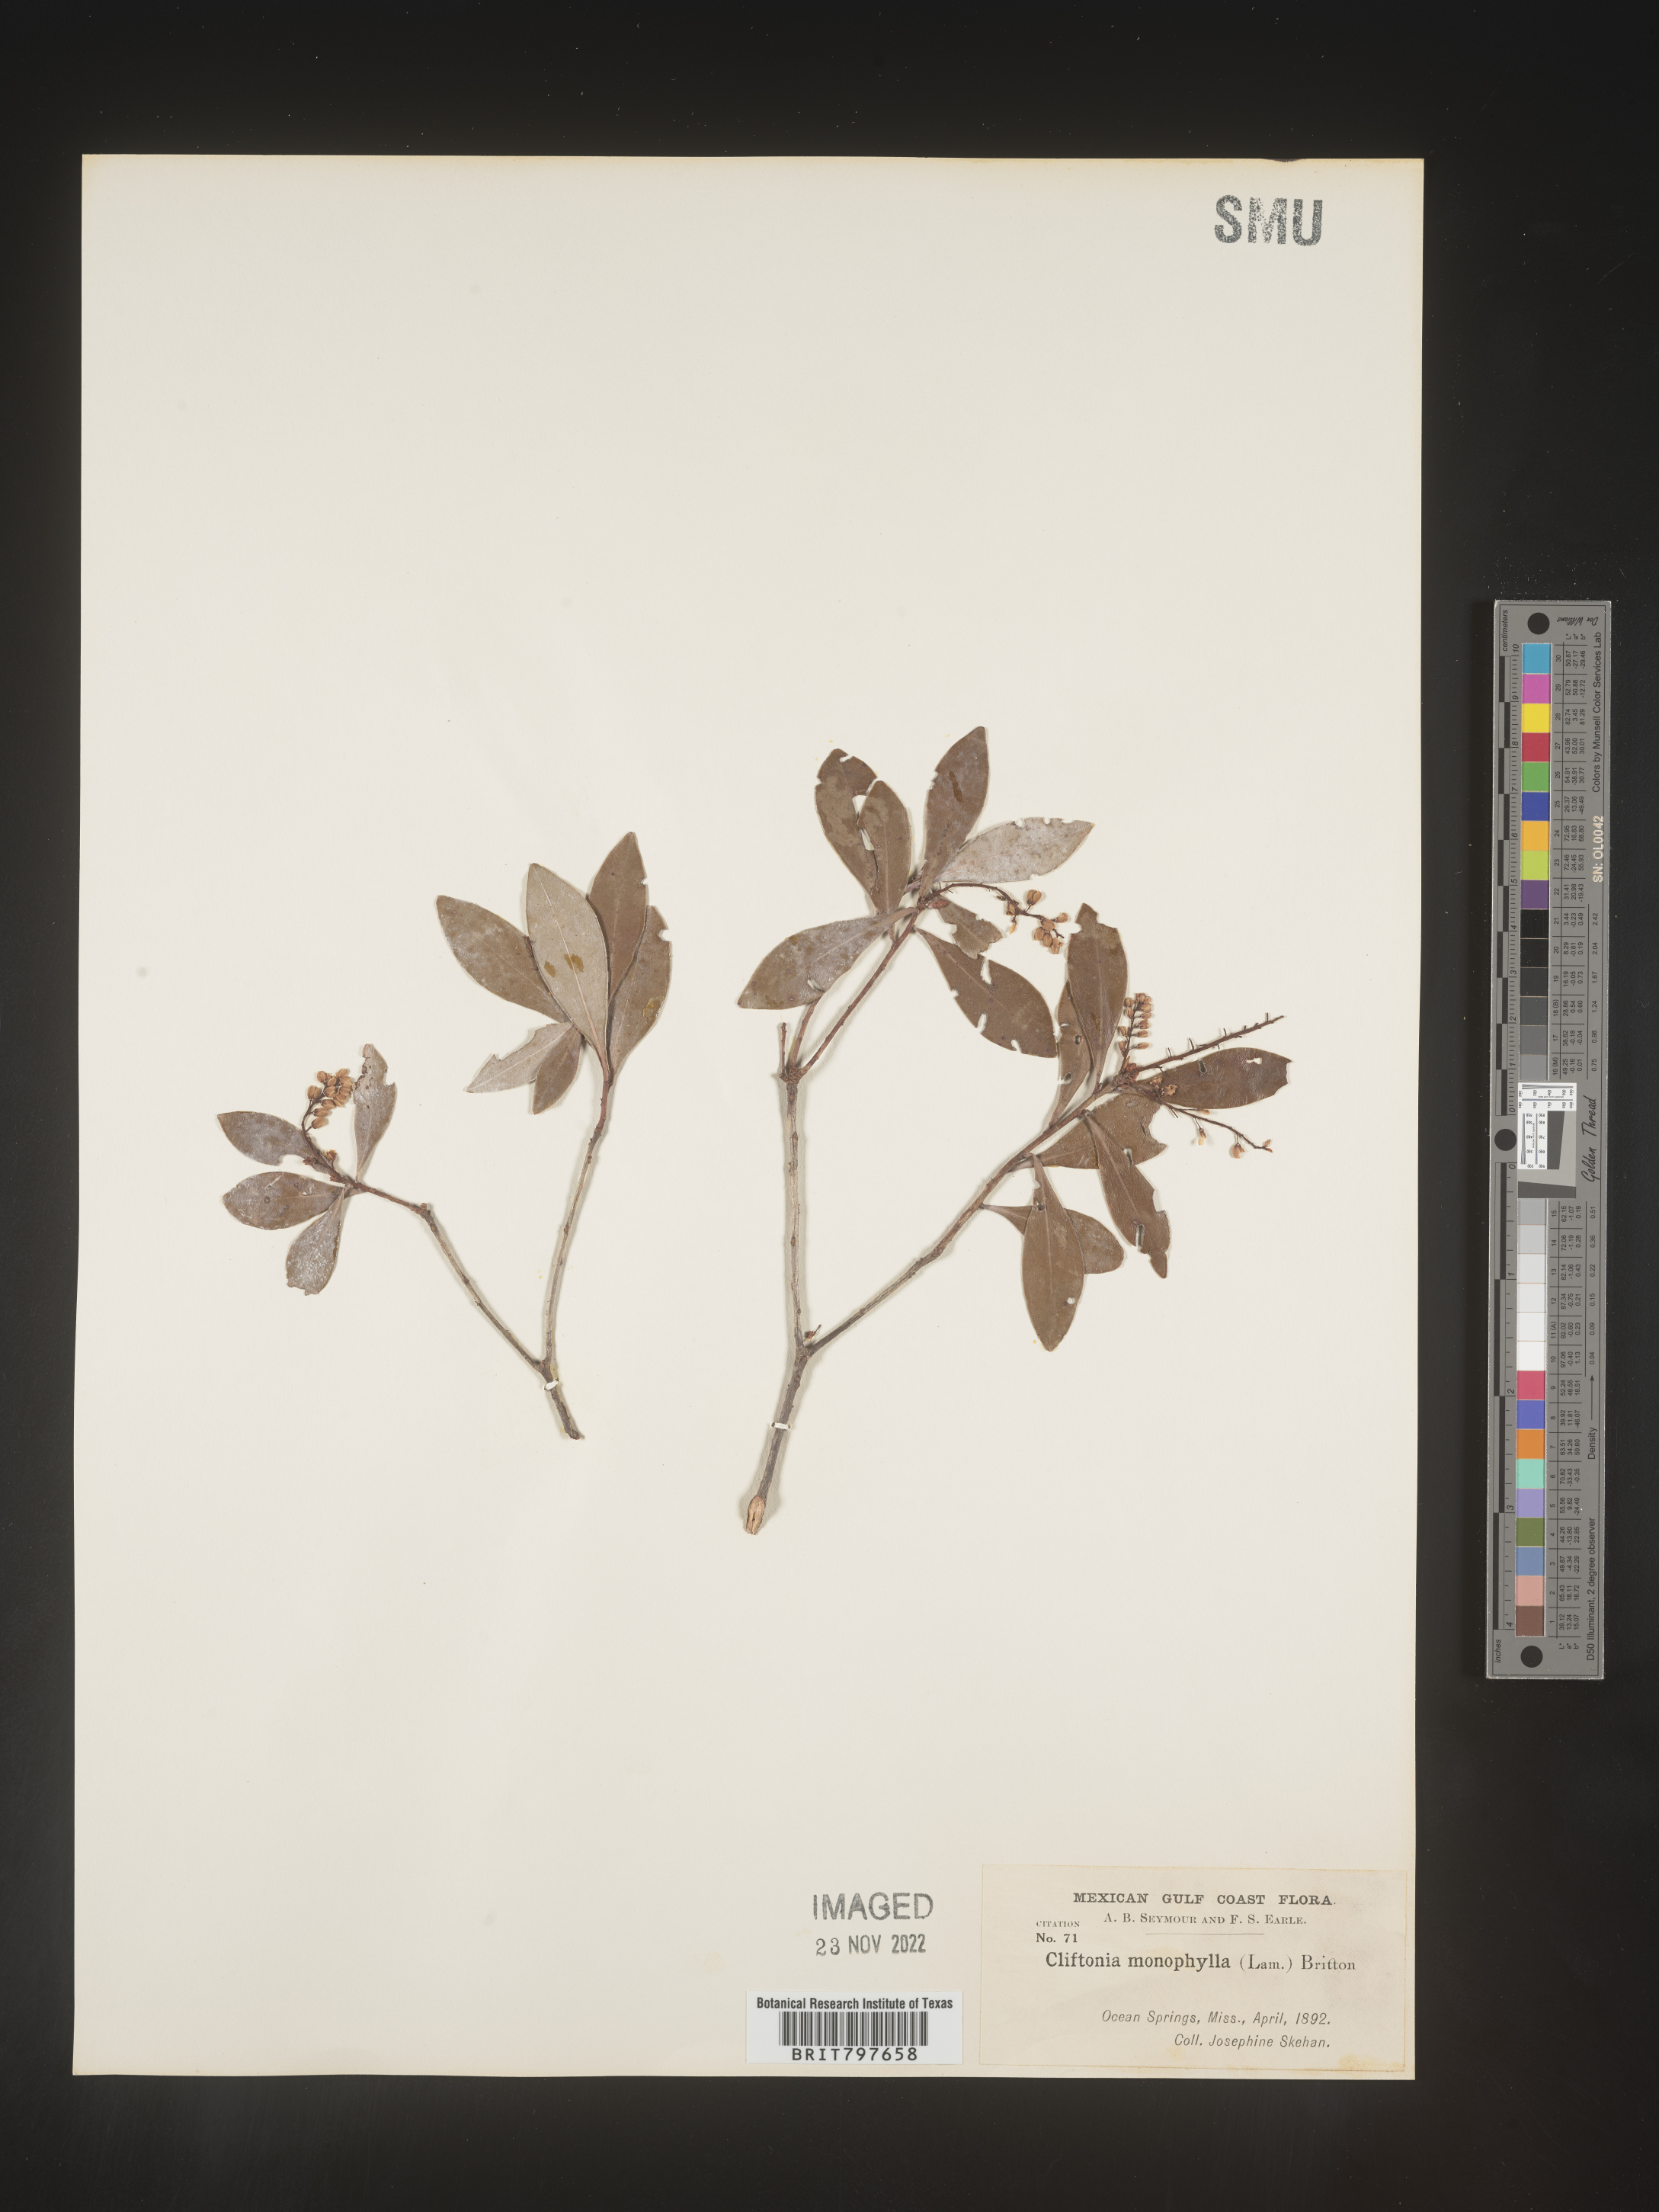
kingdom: Plantae
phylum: Tracheophyta
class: Magnoliopsida
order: Ericales
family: Cyrillaceae
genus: Cliftonia
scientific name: Cliftonia monophylla
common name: Titi
